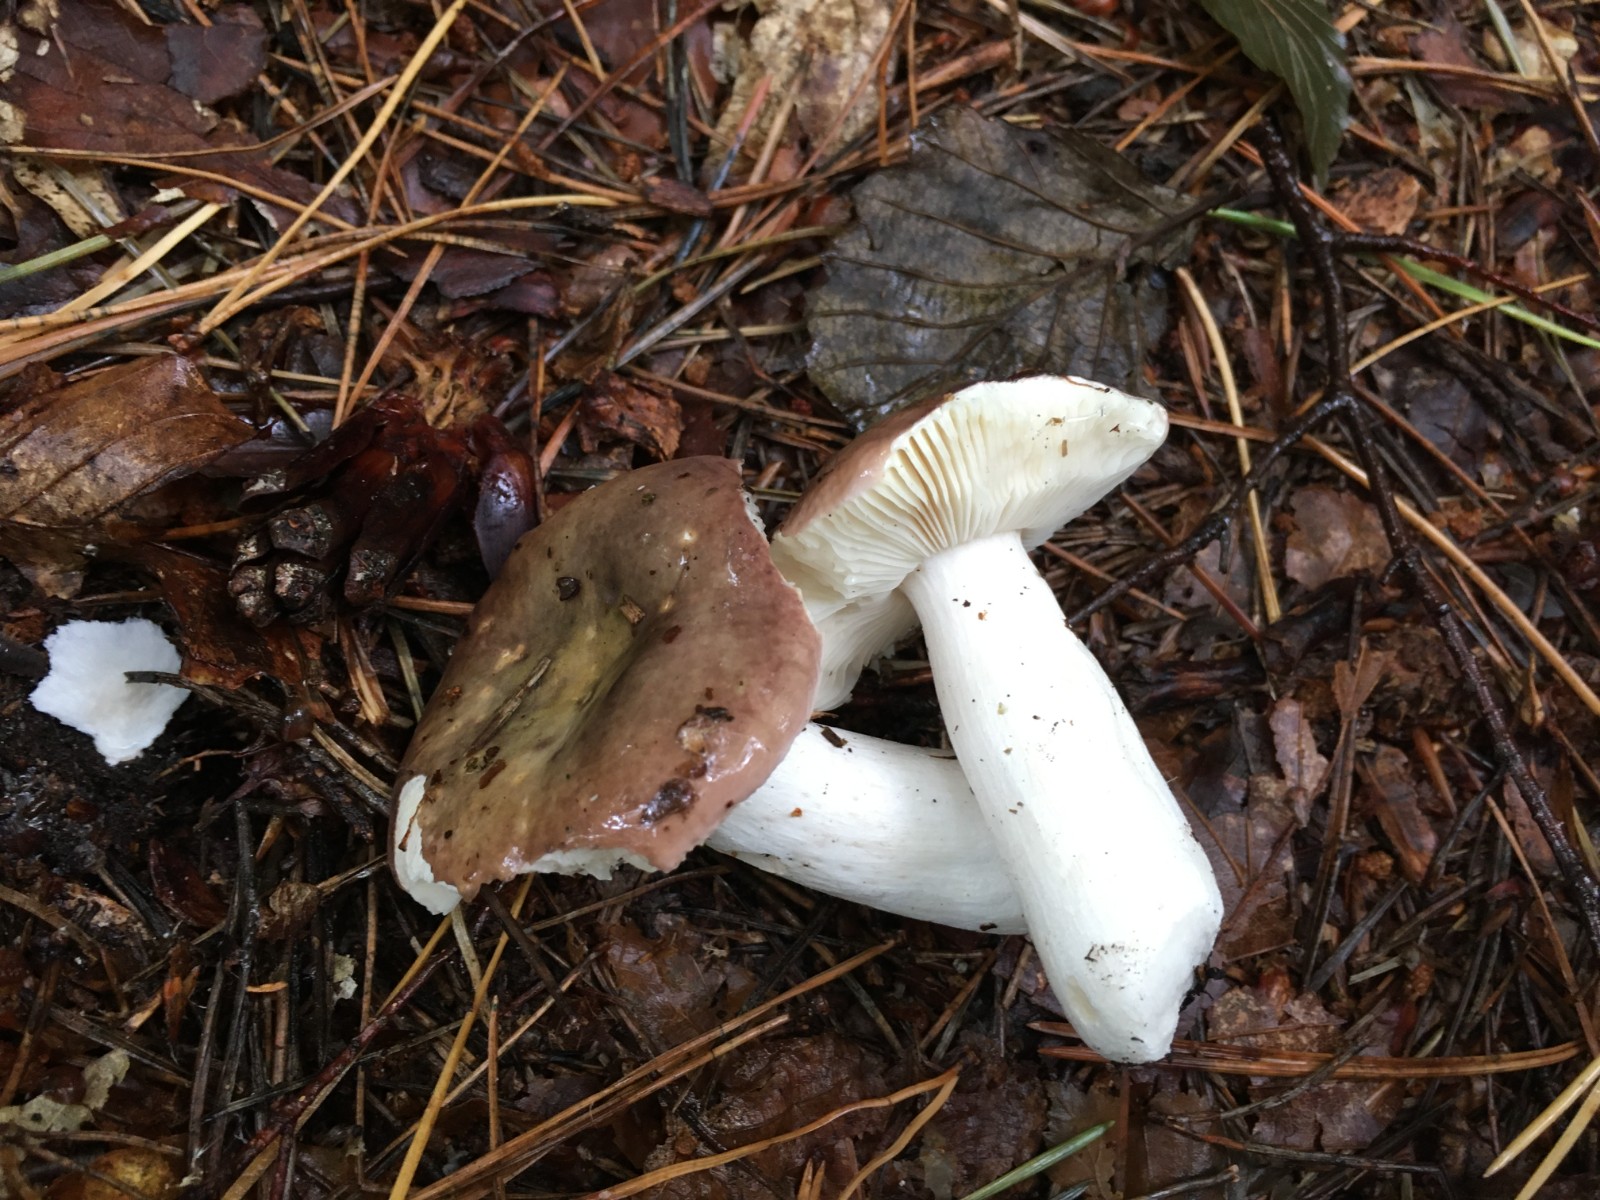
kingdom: Fungi
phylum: Basidiomycota
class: Agaricomycetes
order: Russulales
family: Russulaceae
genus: Russula
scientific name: Russula cessans
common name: fyrre-skørhat
